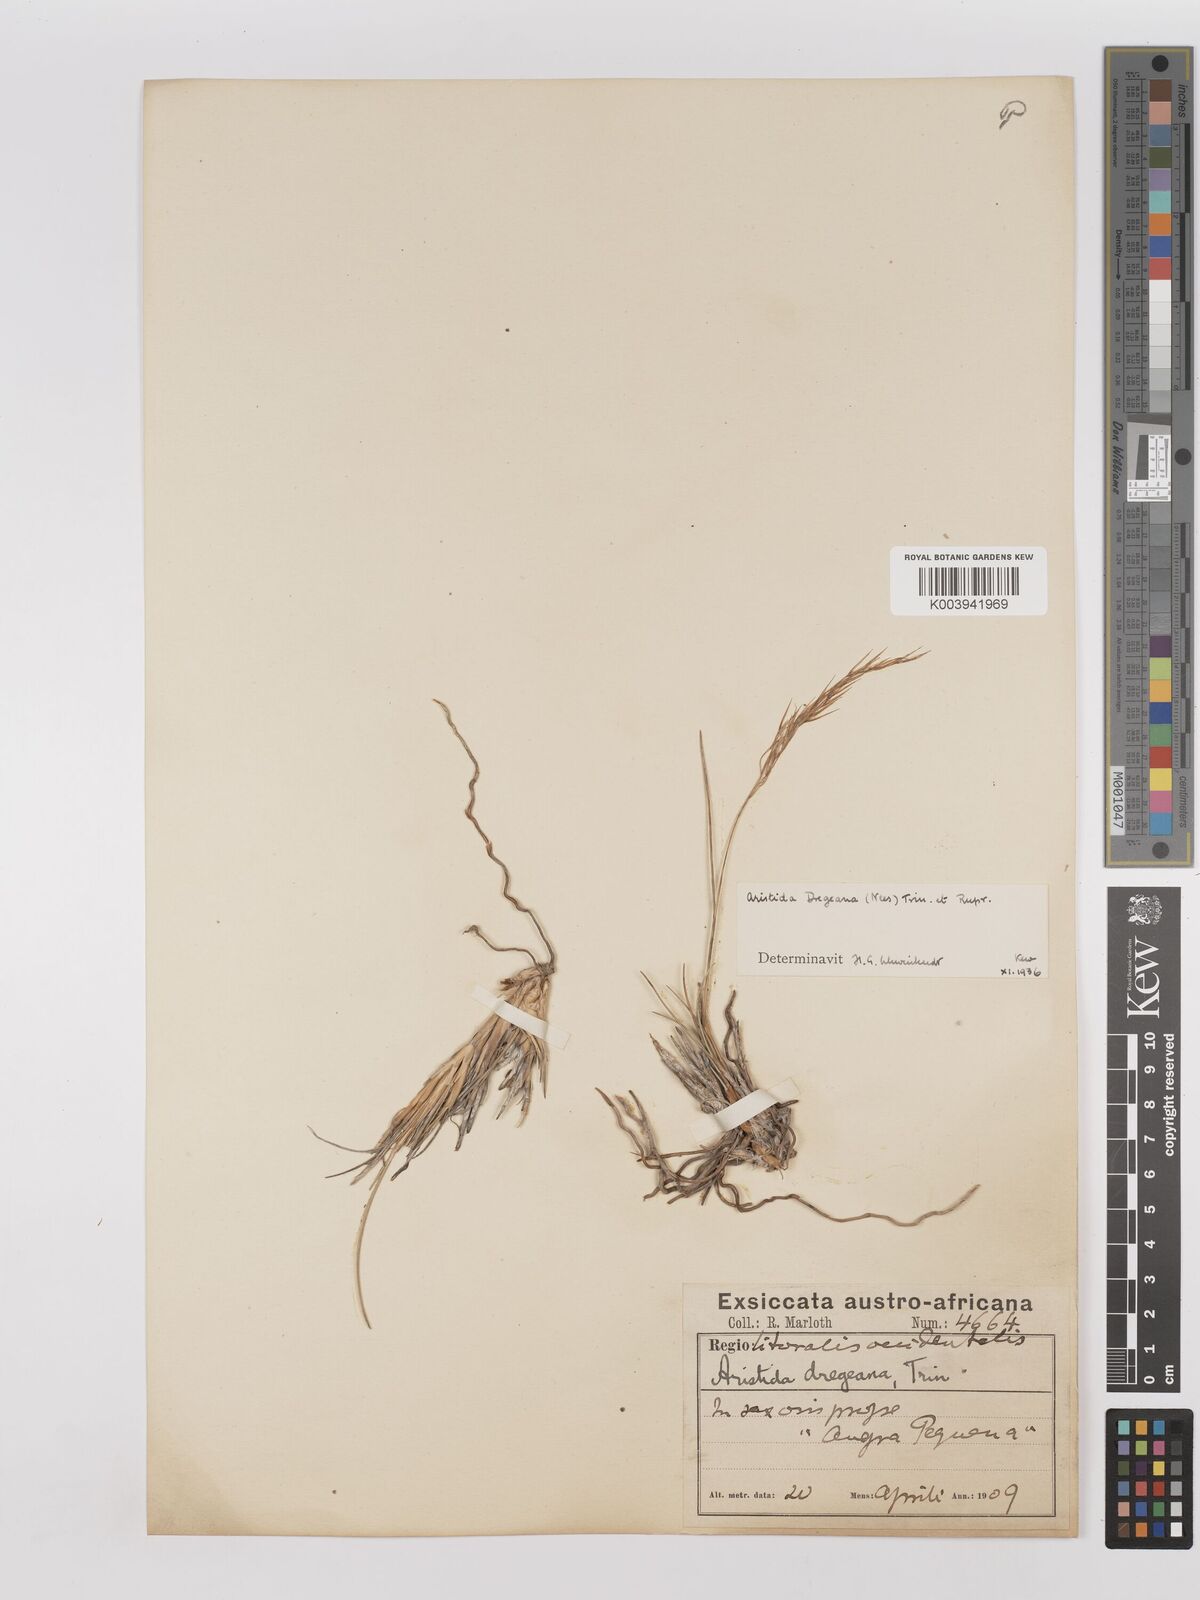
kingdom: Plantae
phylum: Tracheophyta
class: Liliopsida
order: Poales
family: Poaceae
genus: Stipagrostis
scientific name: Stipagrostis dregeana
